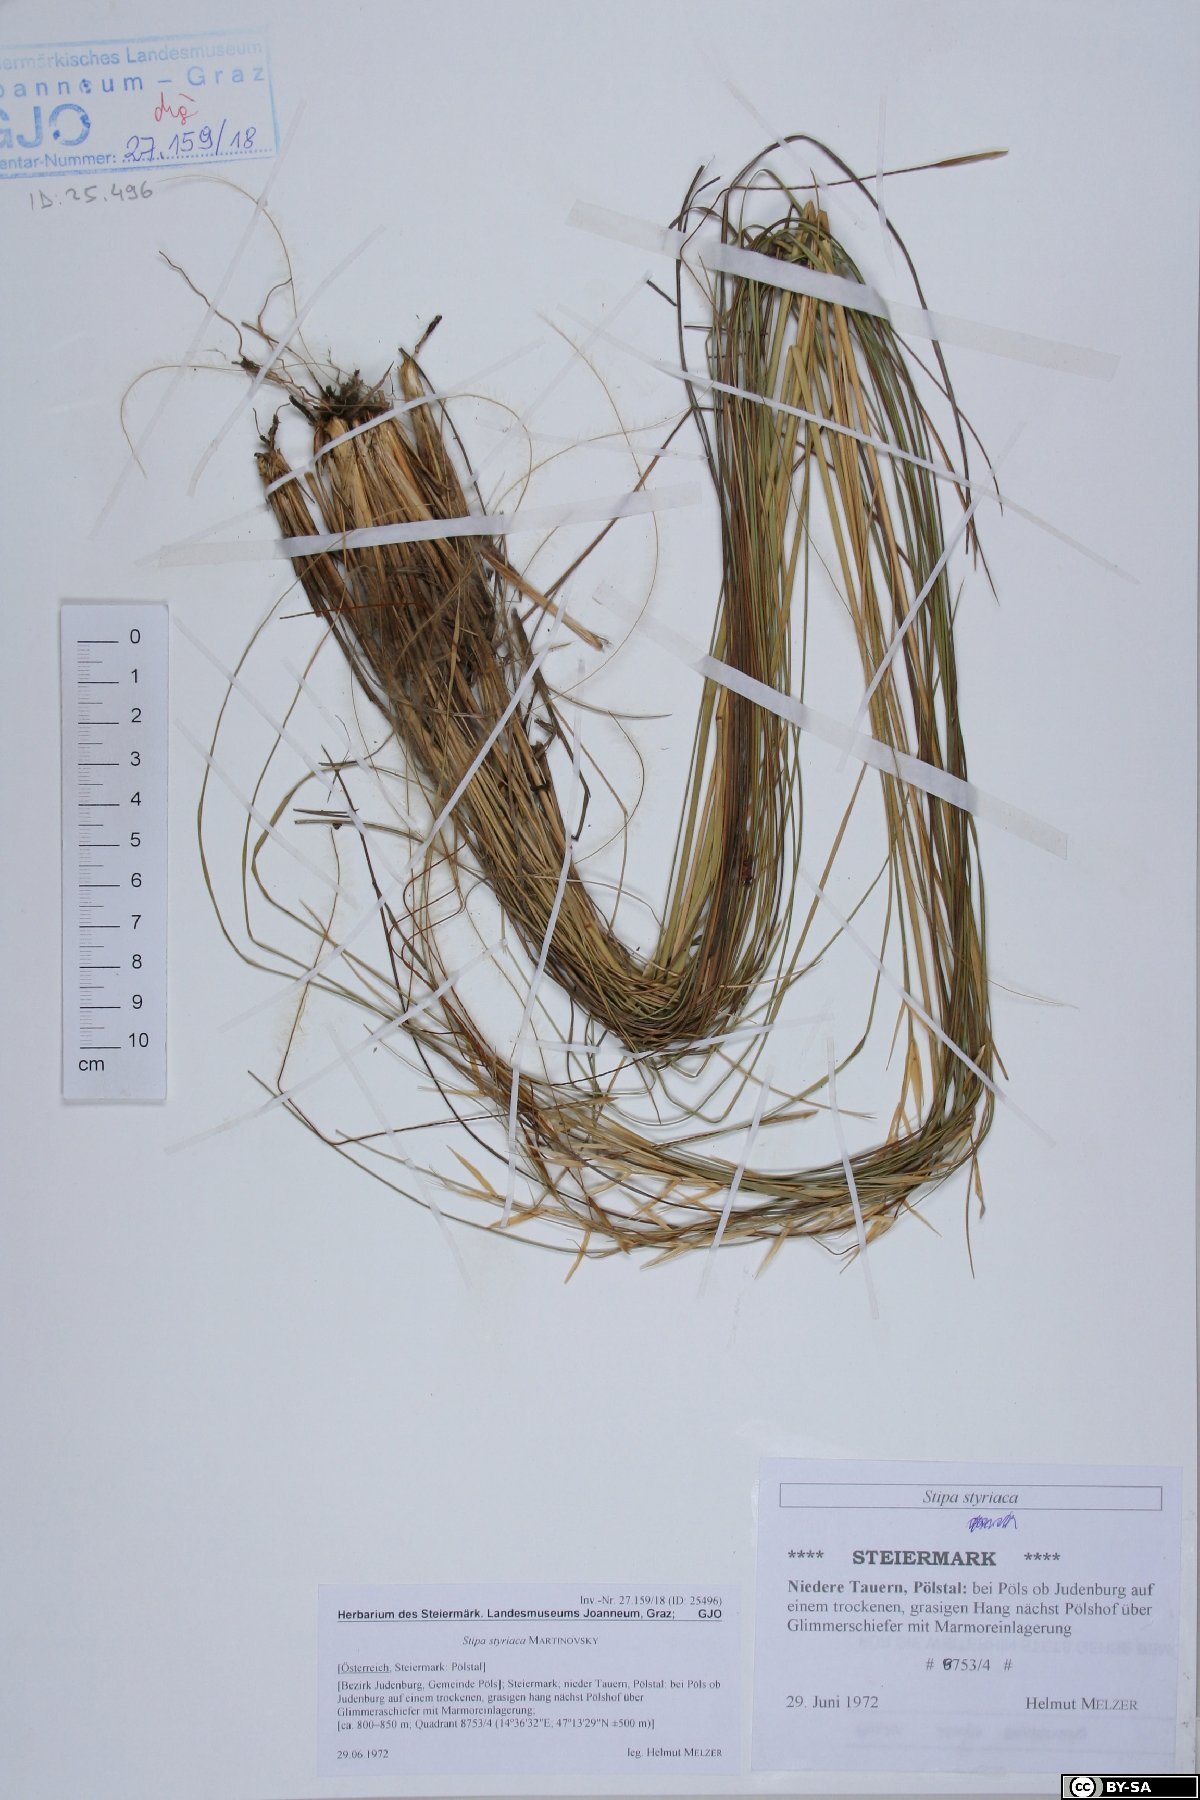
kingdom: Plantae
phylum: Tracheophyta
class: Liliopsida
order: Poales
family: Poaceae
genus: Stipa
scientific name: Stipa pennata
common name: European feather grass
